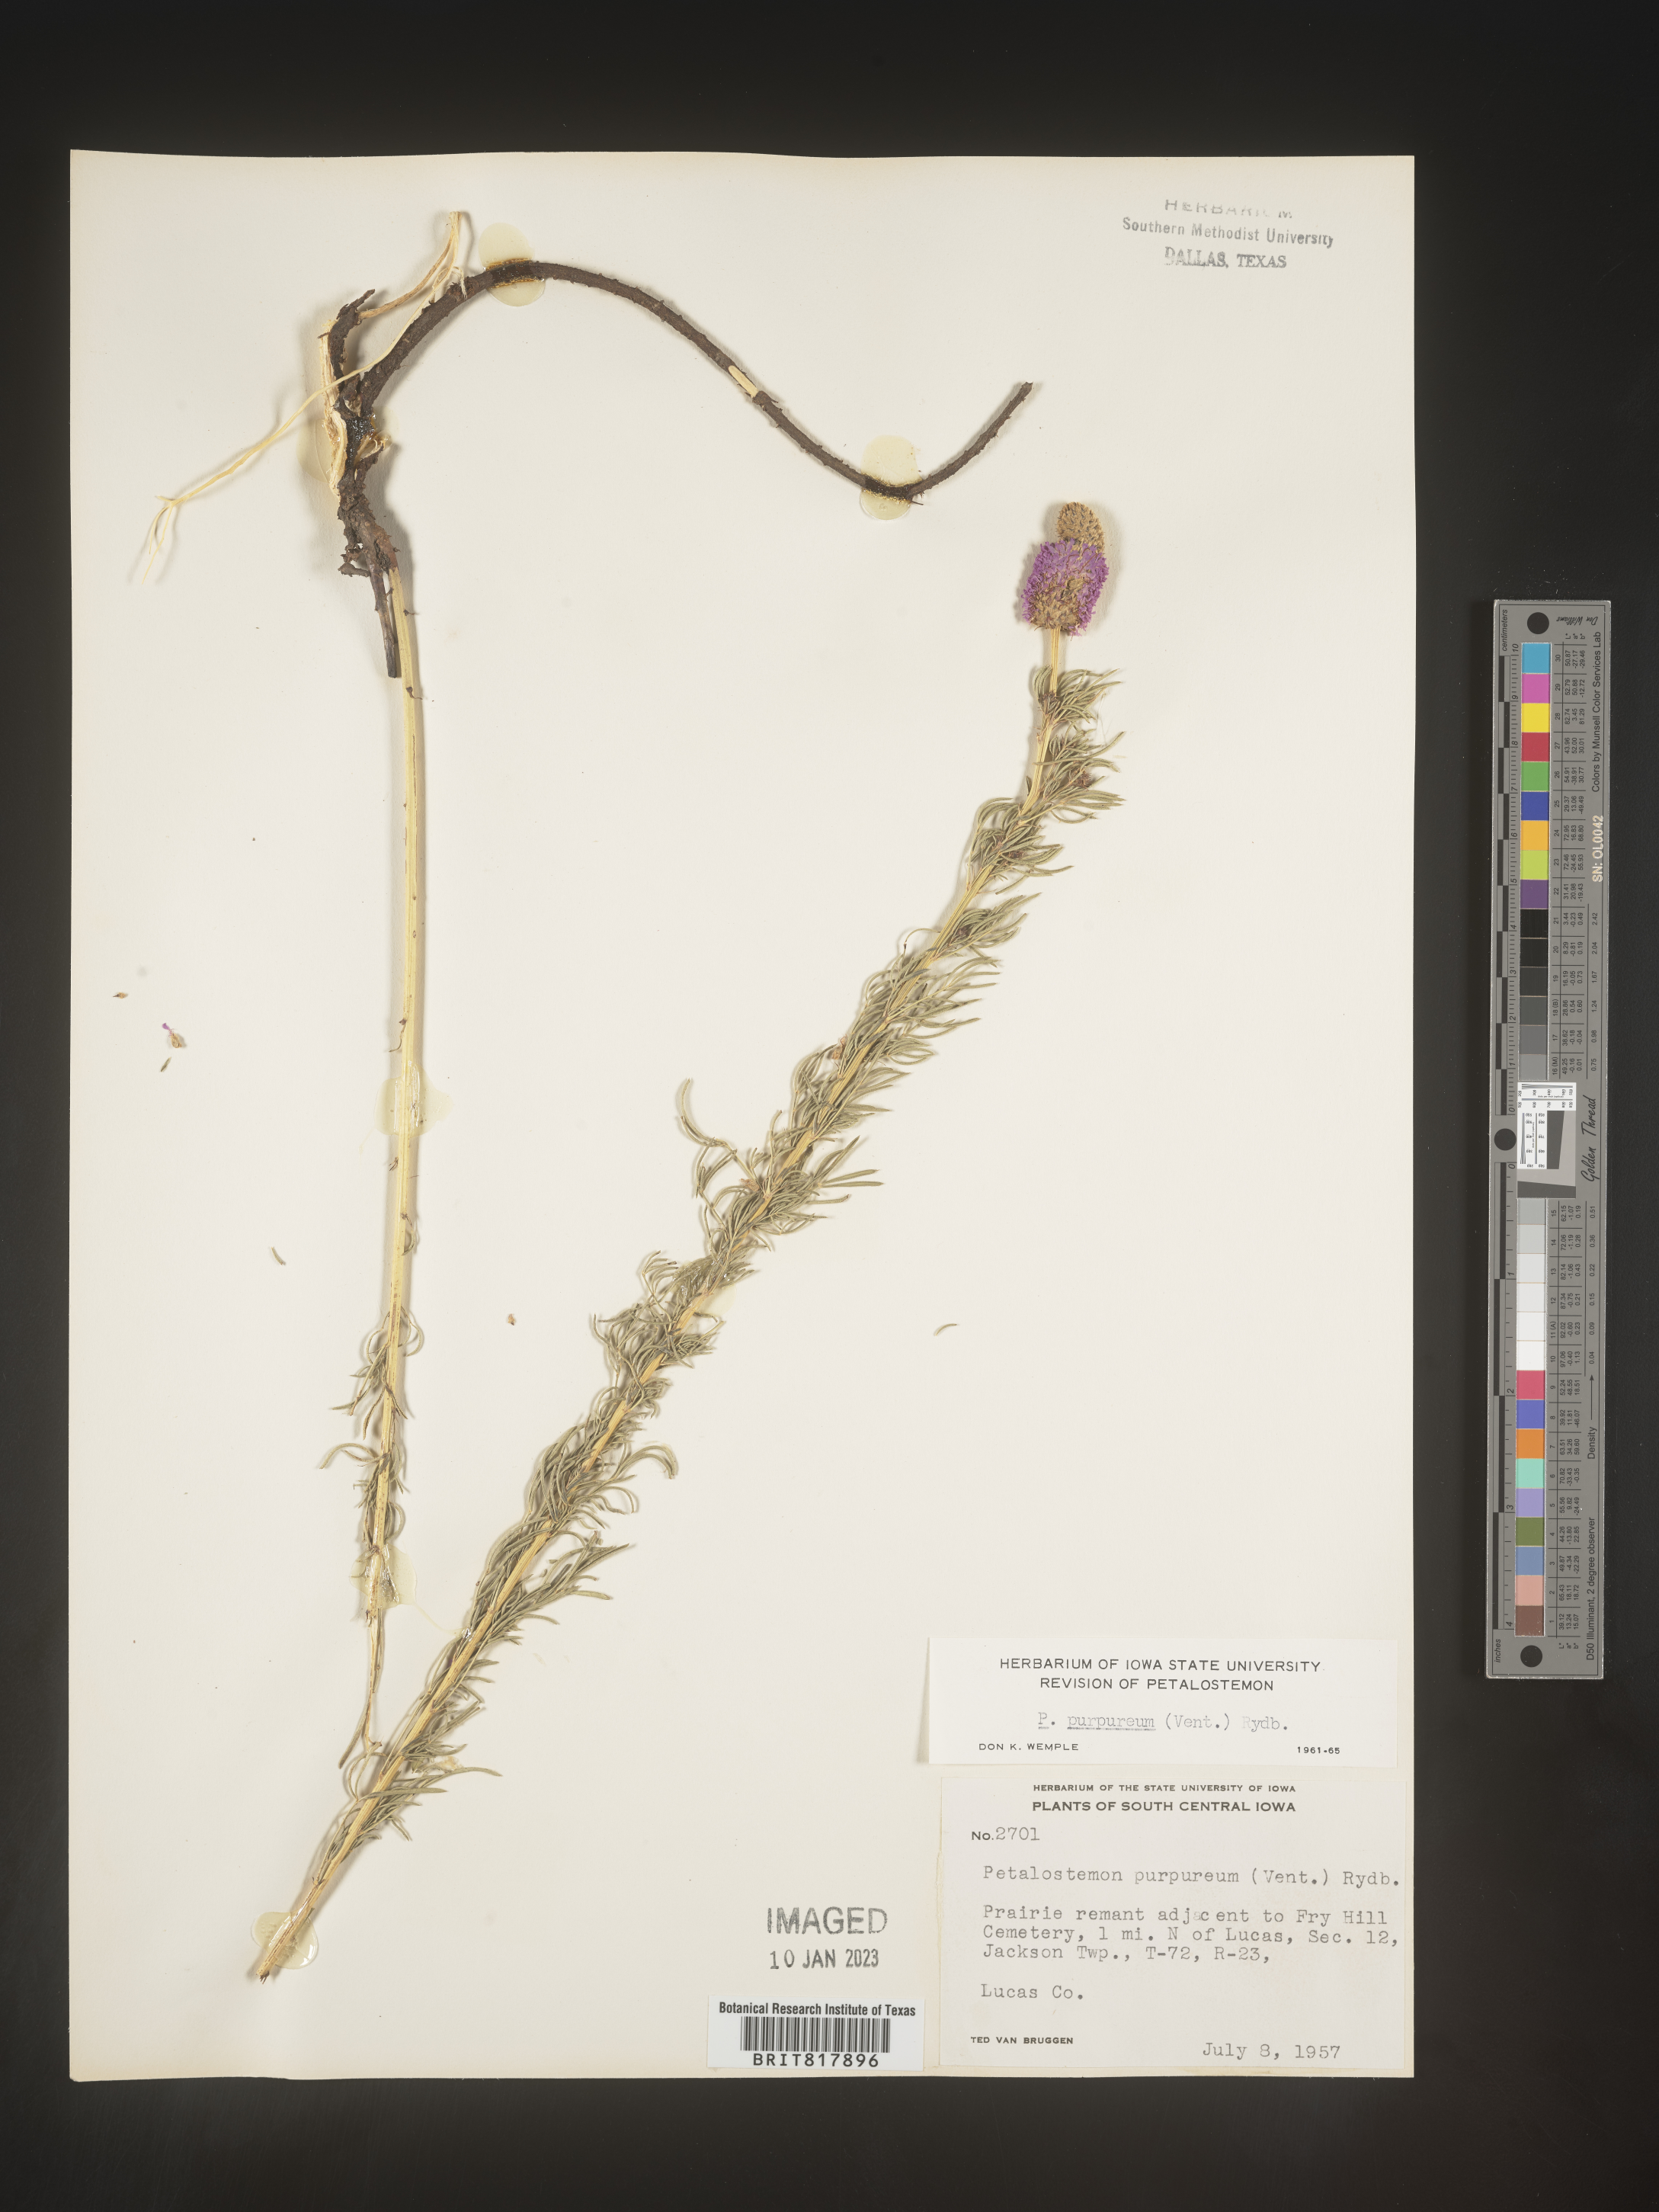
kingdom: Plantae
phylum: Tracheophyta
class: Magnoliopsida
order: Fabales
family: Fabaceae
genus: Dalea
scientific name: Dalea purpurea
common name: Purple prairie-clover
